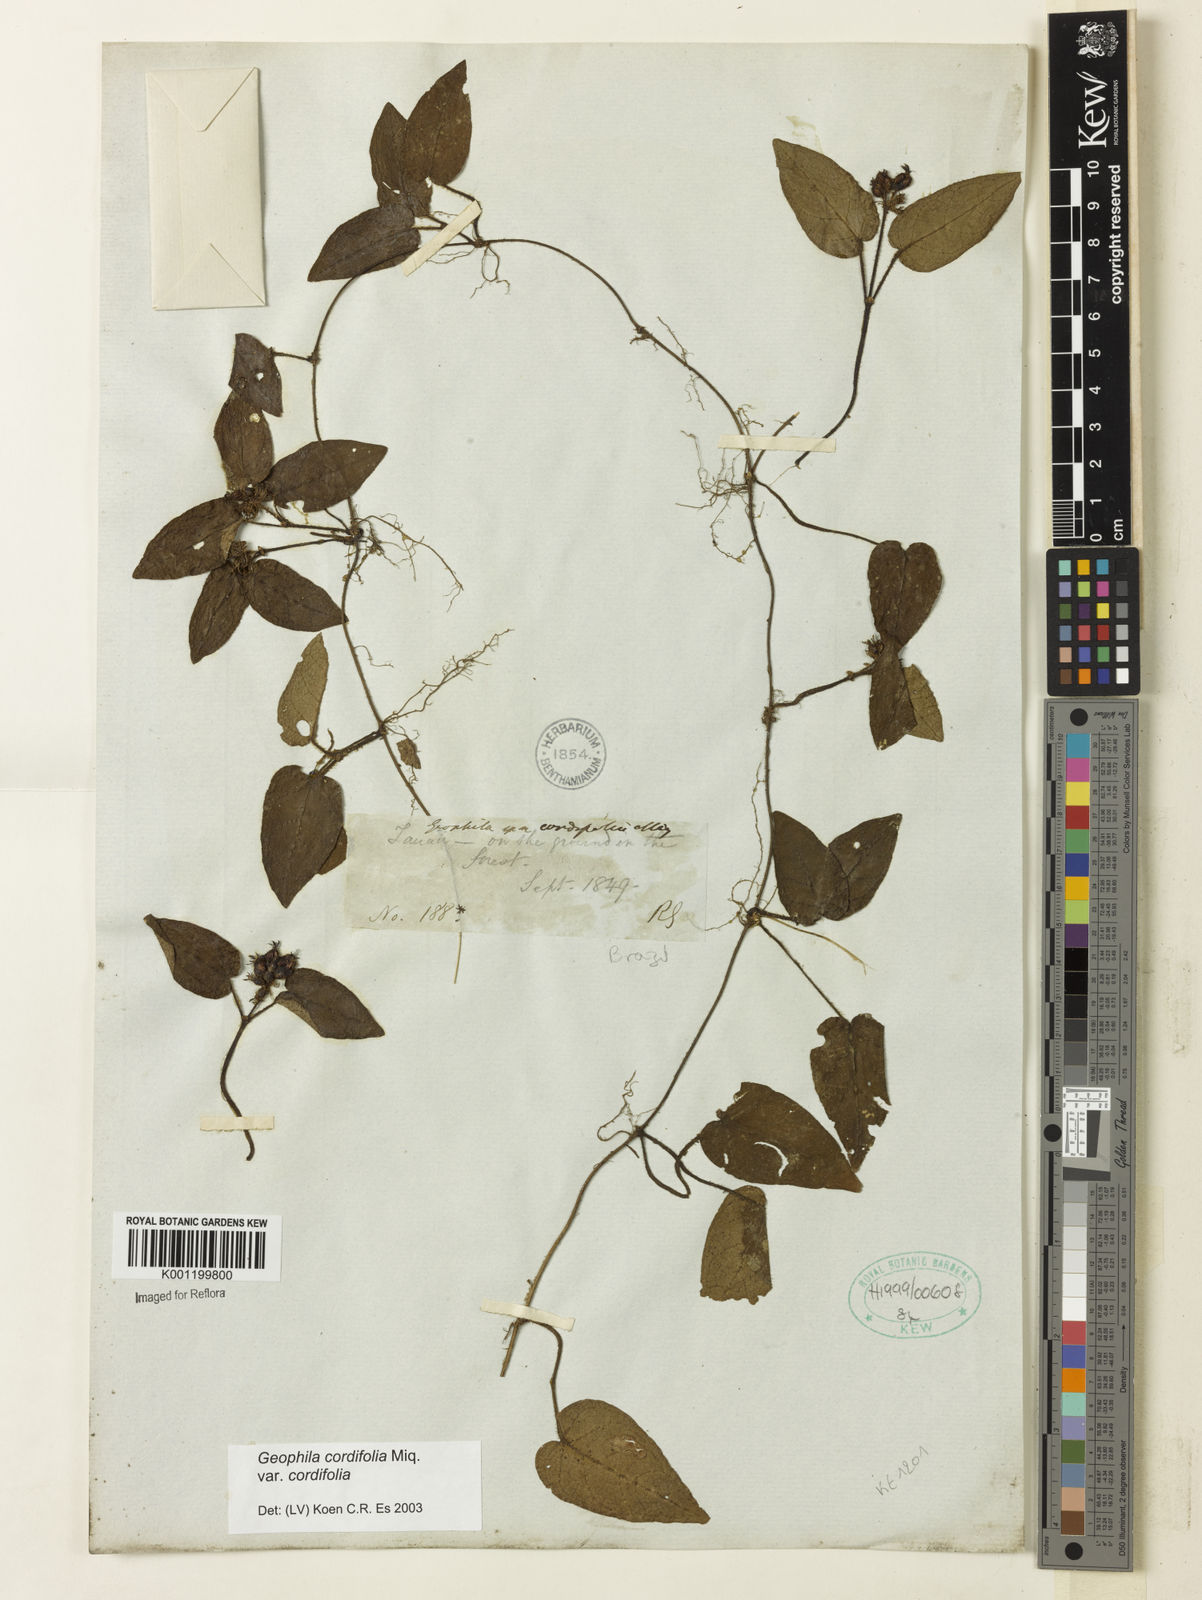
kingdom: Plantae
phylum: Tracheophyta
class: Magnoliopsida
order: Gentianales
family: Rubiaceae
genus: Geophila
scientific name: Geophila cordifolia
